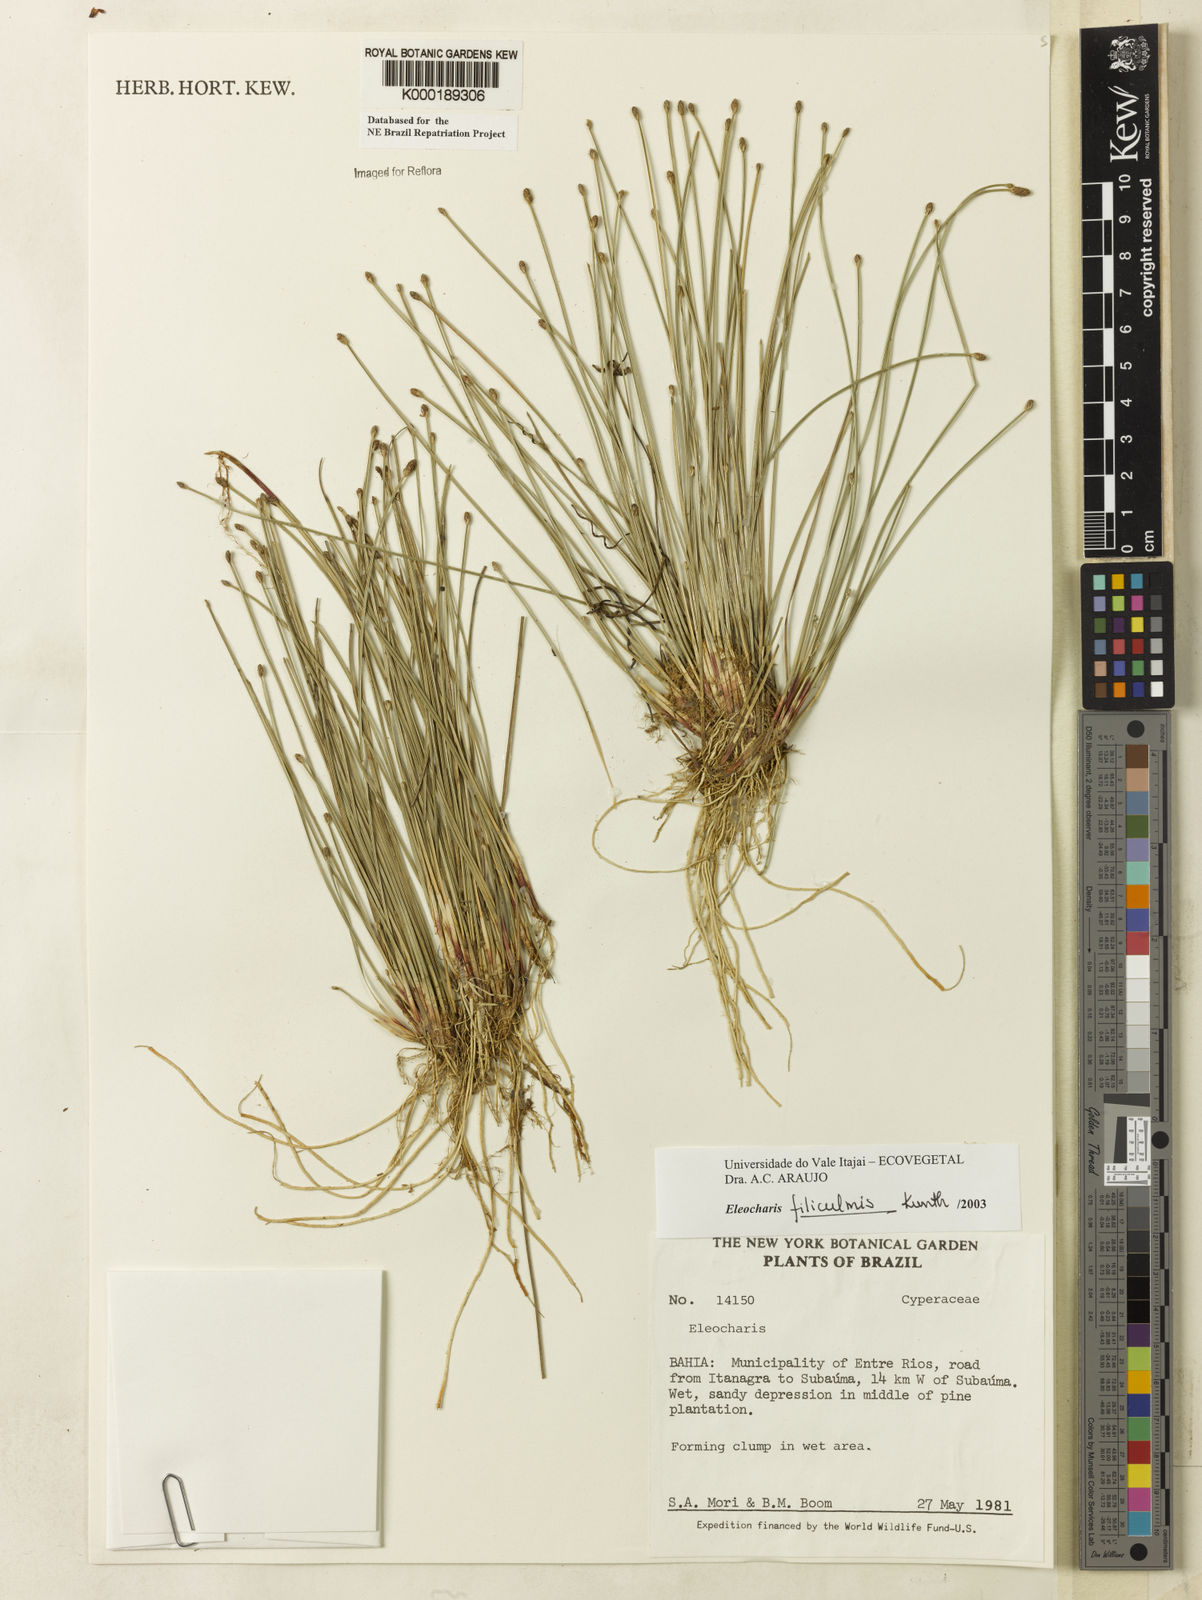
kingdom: Plantae
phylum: Tracheophyta
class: Liliopsida
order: Poales
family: Cyperaceae
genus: Eleocharis
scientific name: Eleocharis filiculmis
